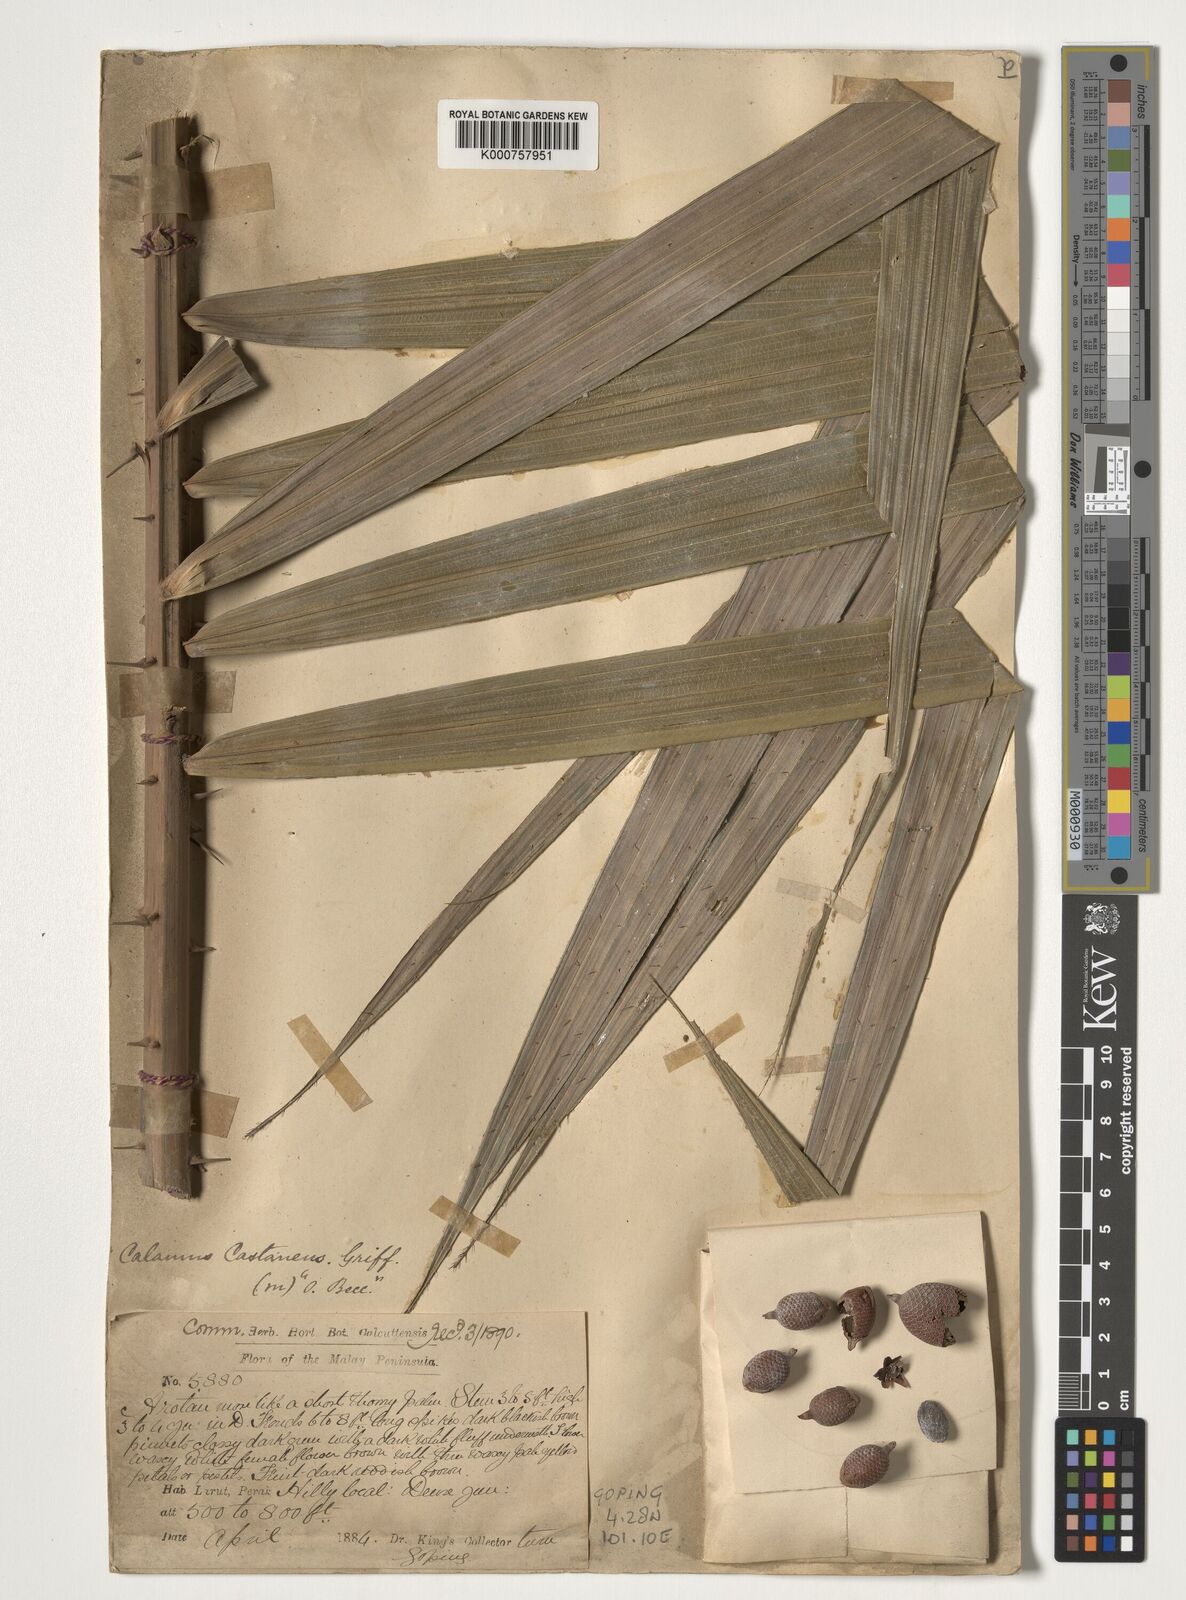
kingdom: Plantae
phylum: Tracheophyta
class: Liliopsida
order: Arecales
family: Arecaceae
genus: Calamus
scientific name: Calamus castaneus
